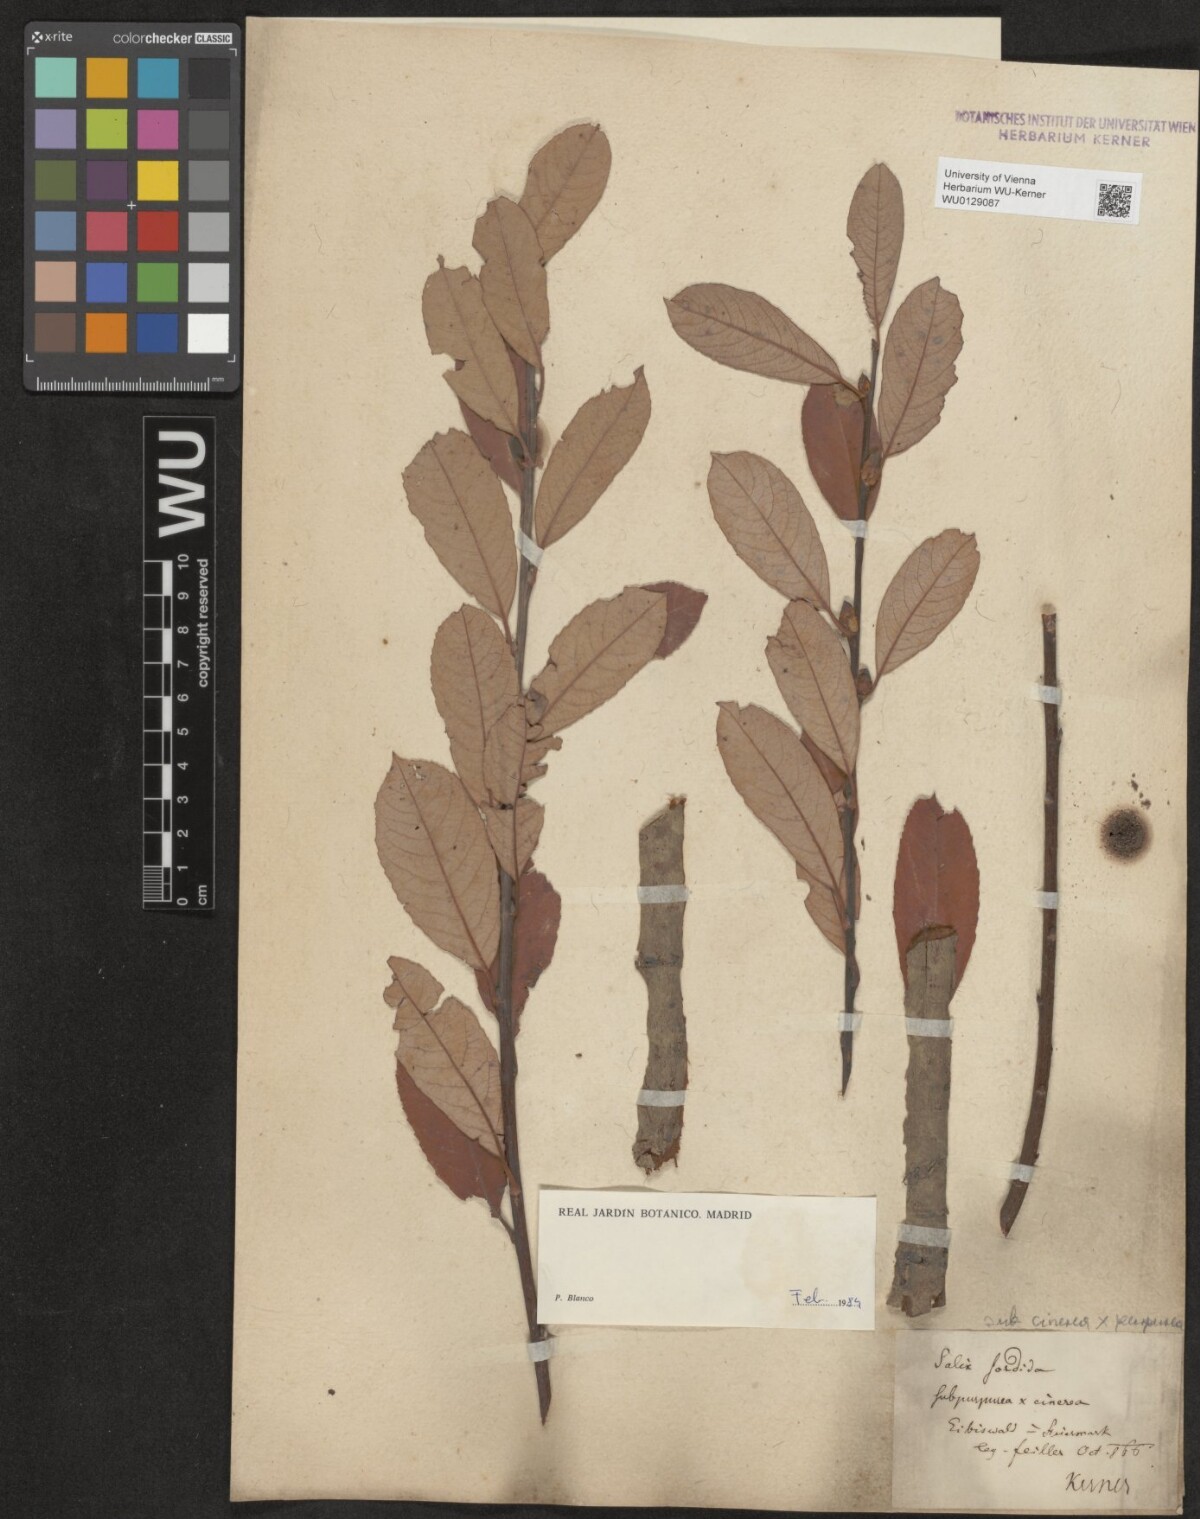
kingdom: Plantae
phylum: Tracheophyta
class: Magnoliopsida
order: Malpighiales
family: Salicaceae
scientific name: Salicaceae
